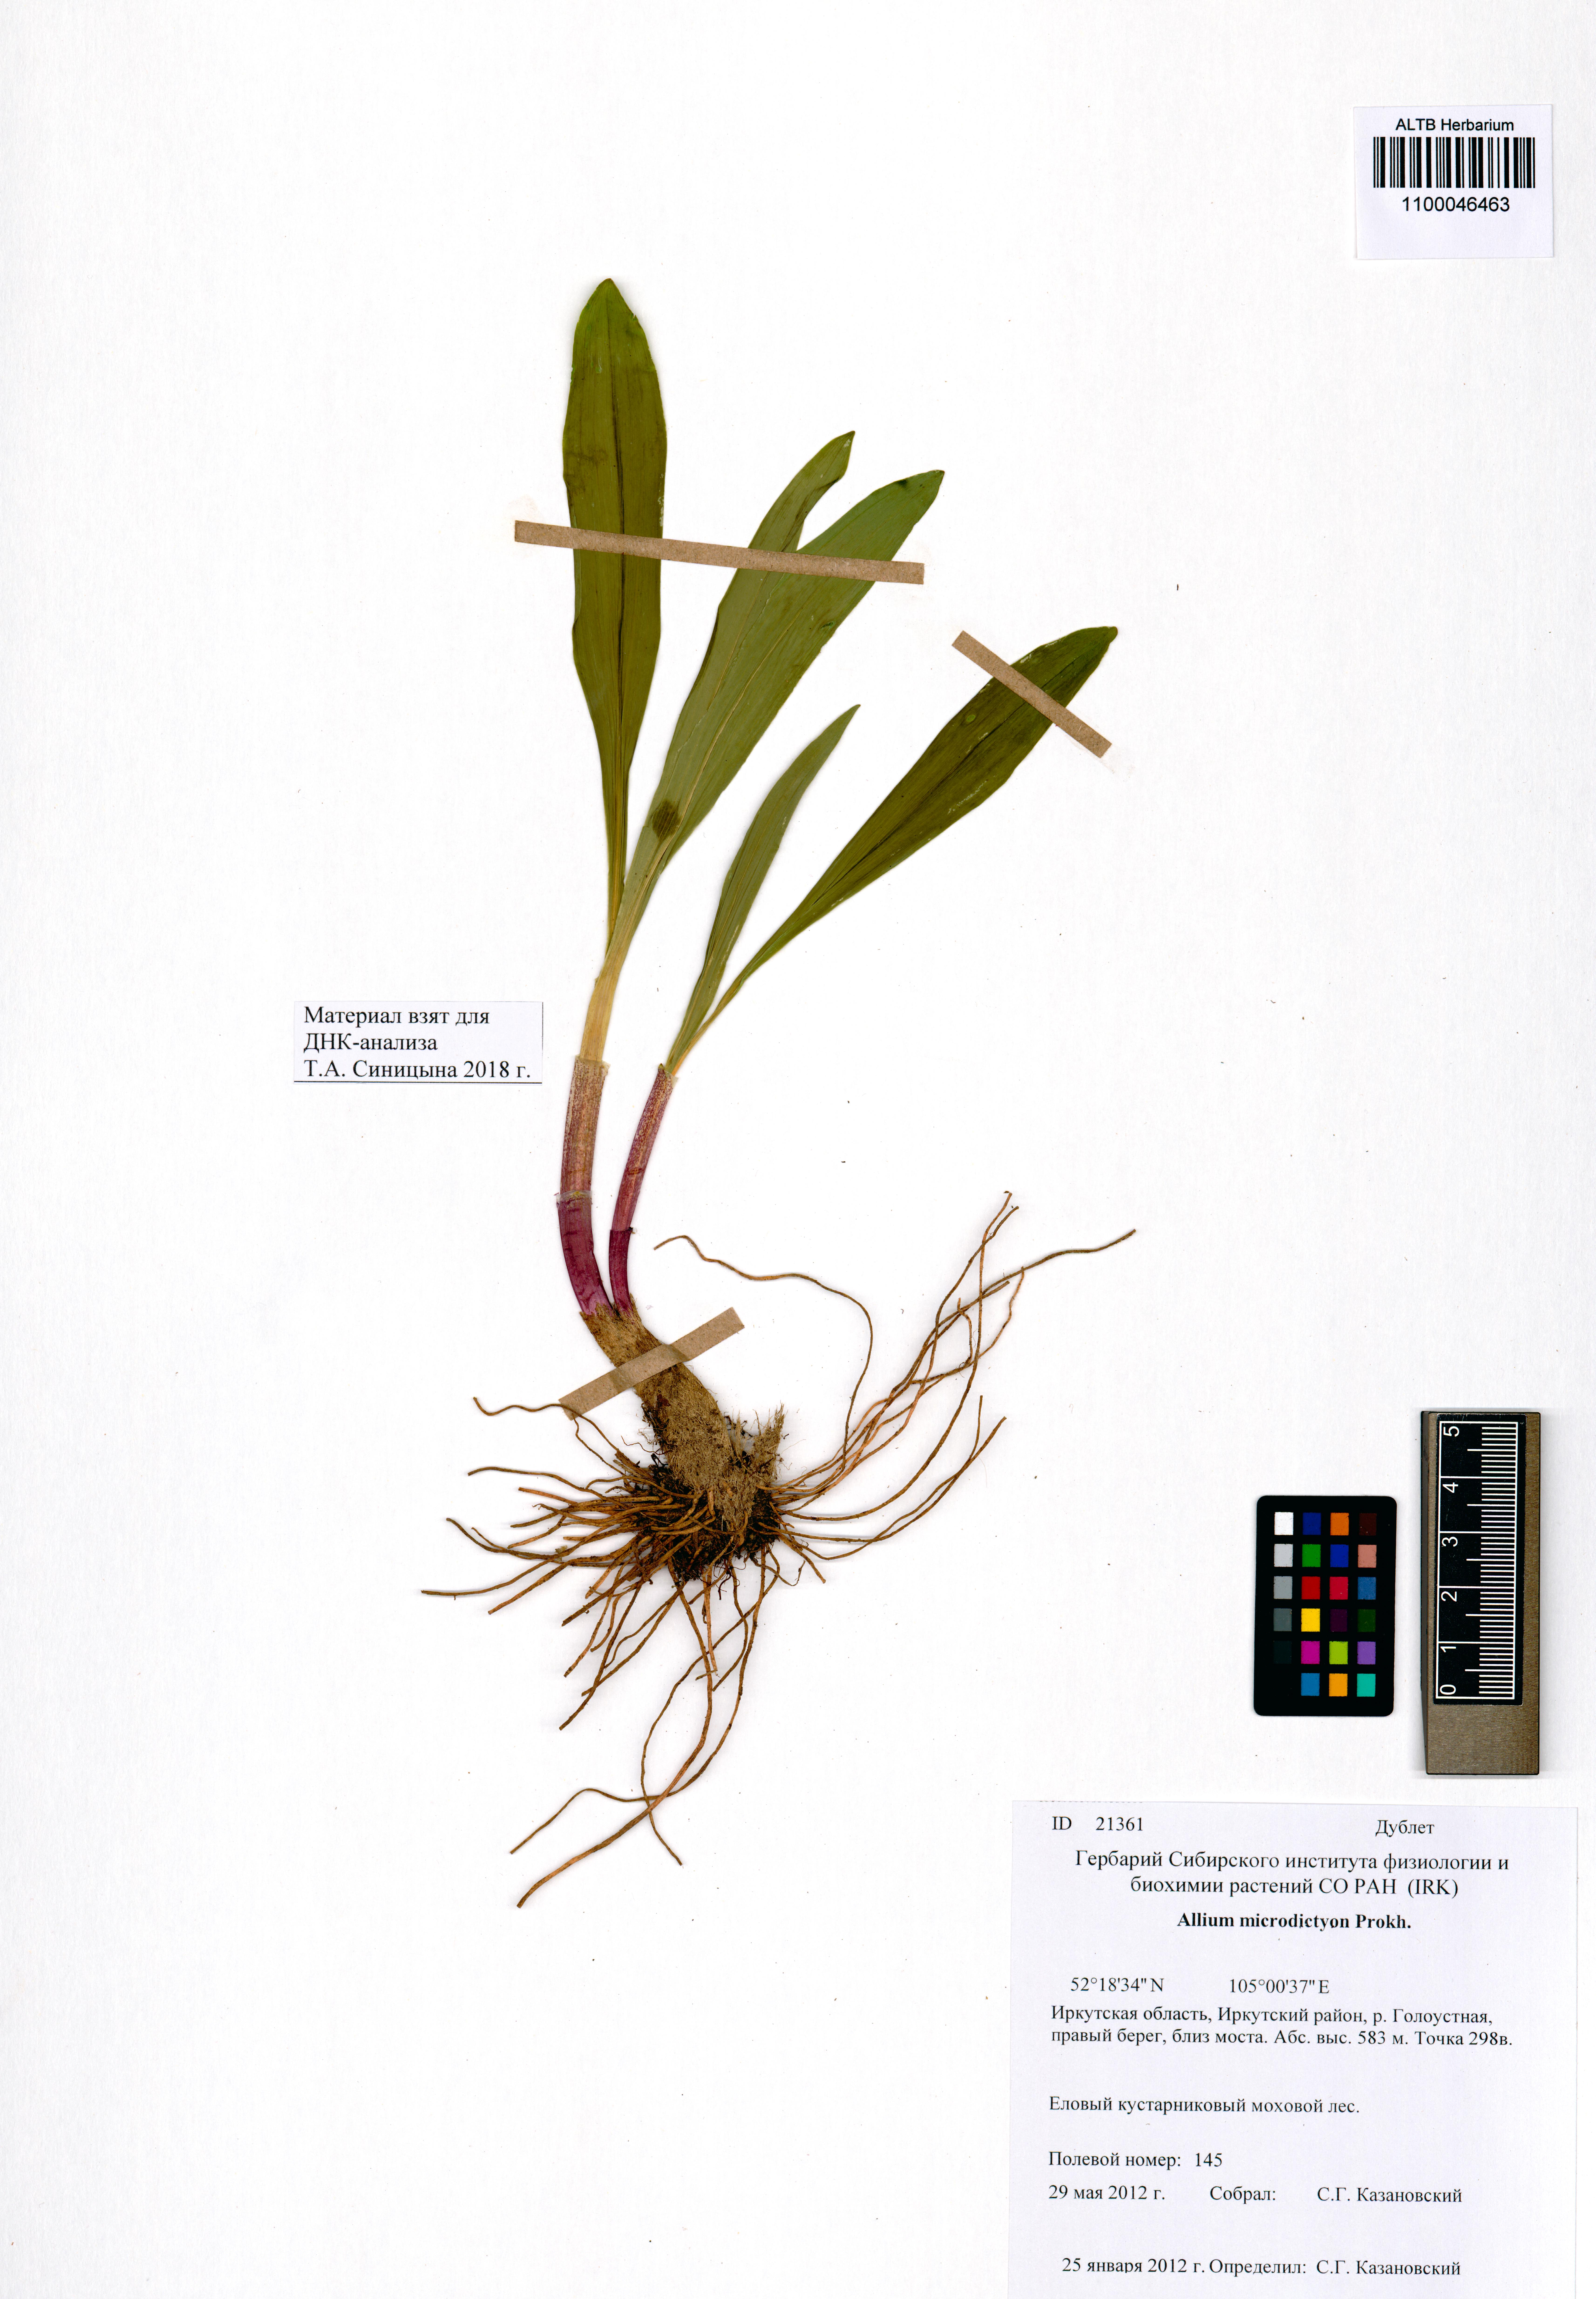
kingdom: Plantae
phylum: Tracheophyta
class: Liliopsida
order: Asparagales
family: Amaryllidaceae
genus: Allium
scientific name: Allium microdictyon
